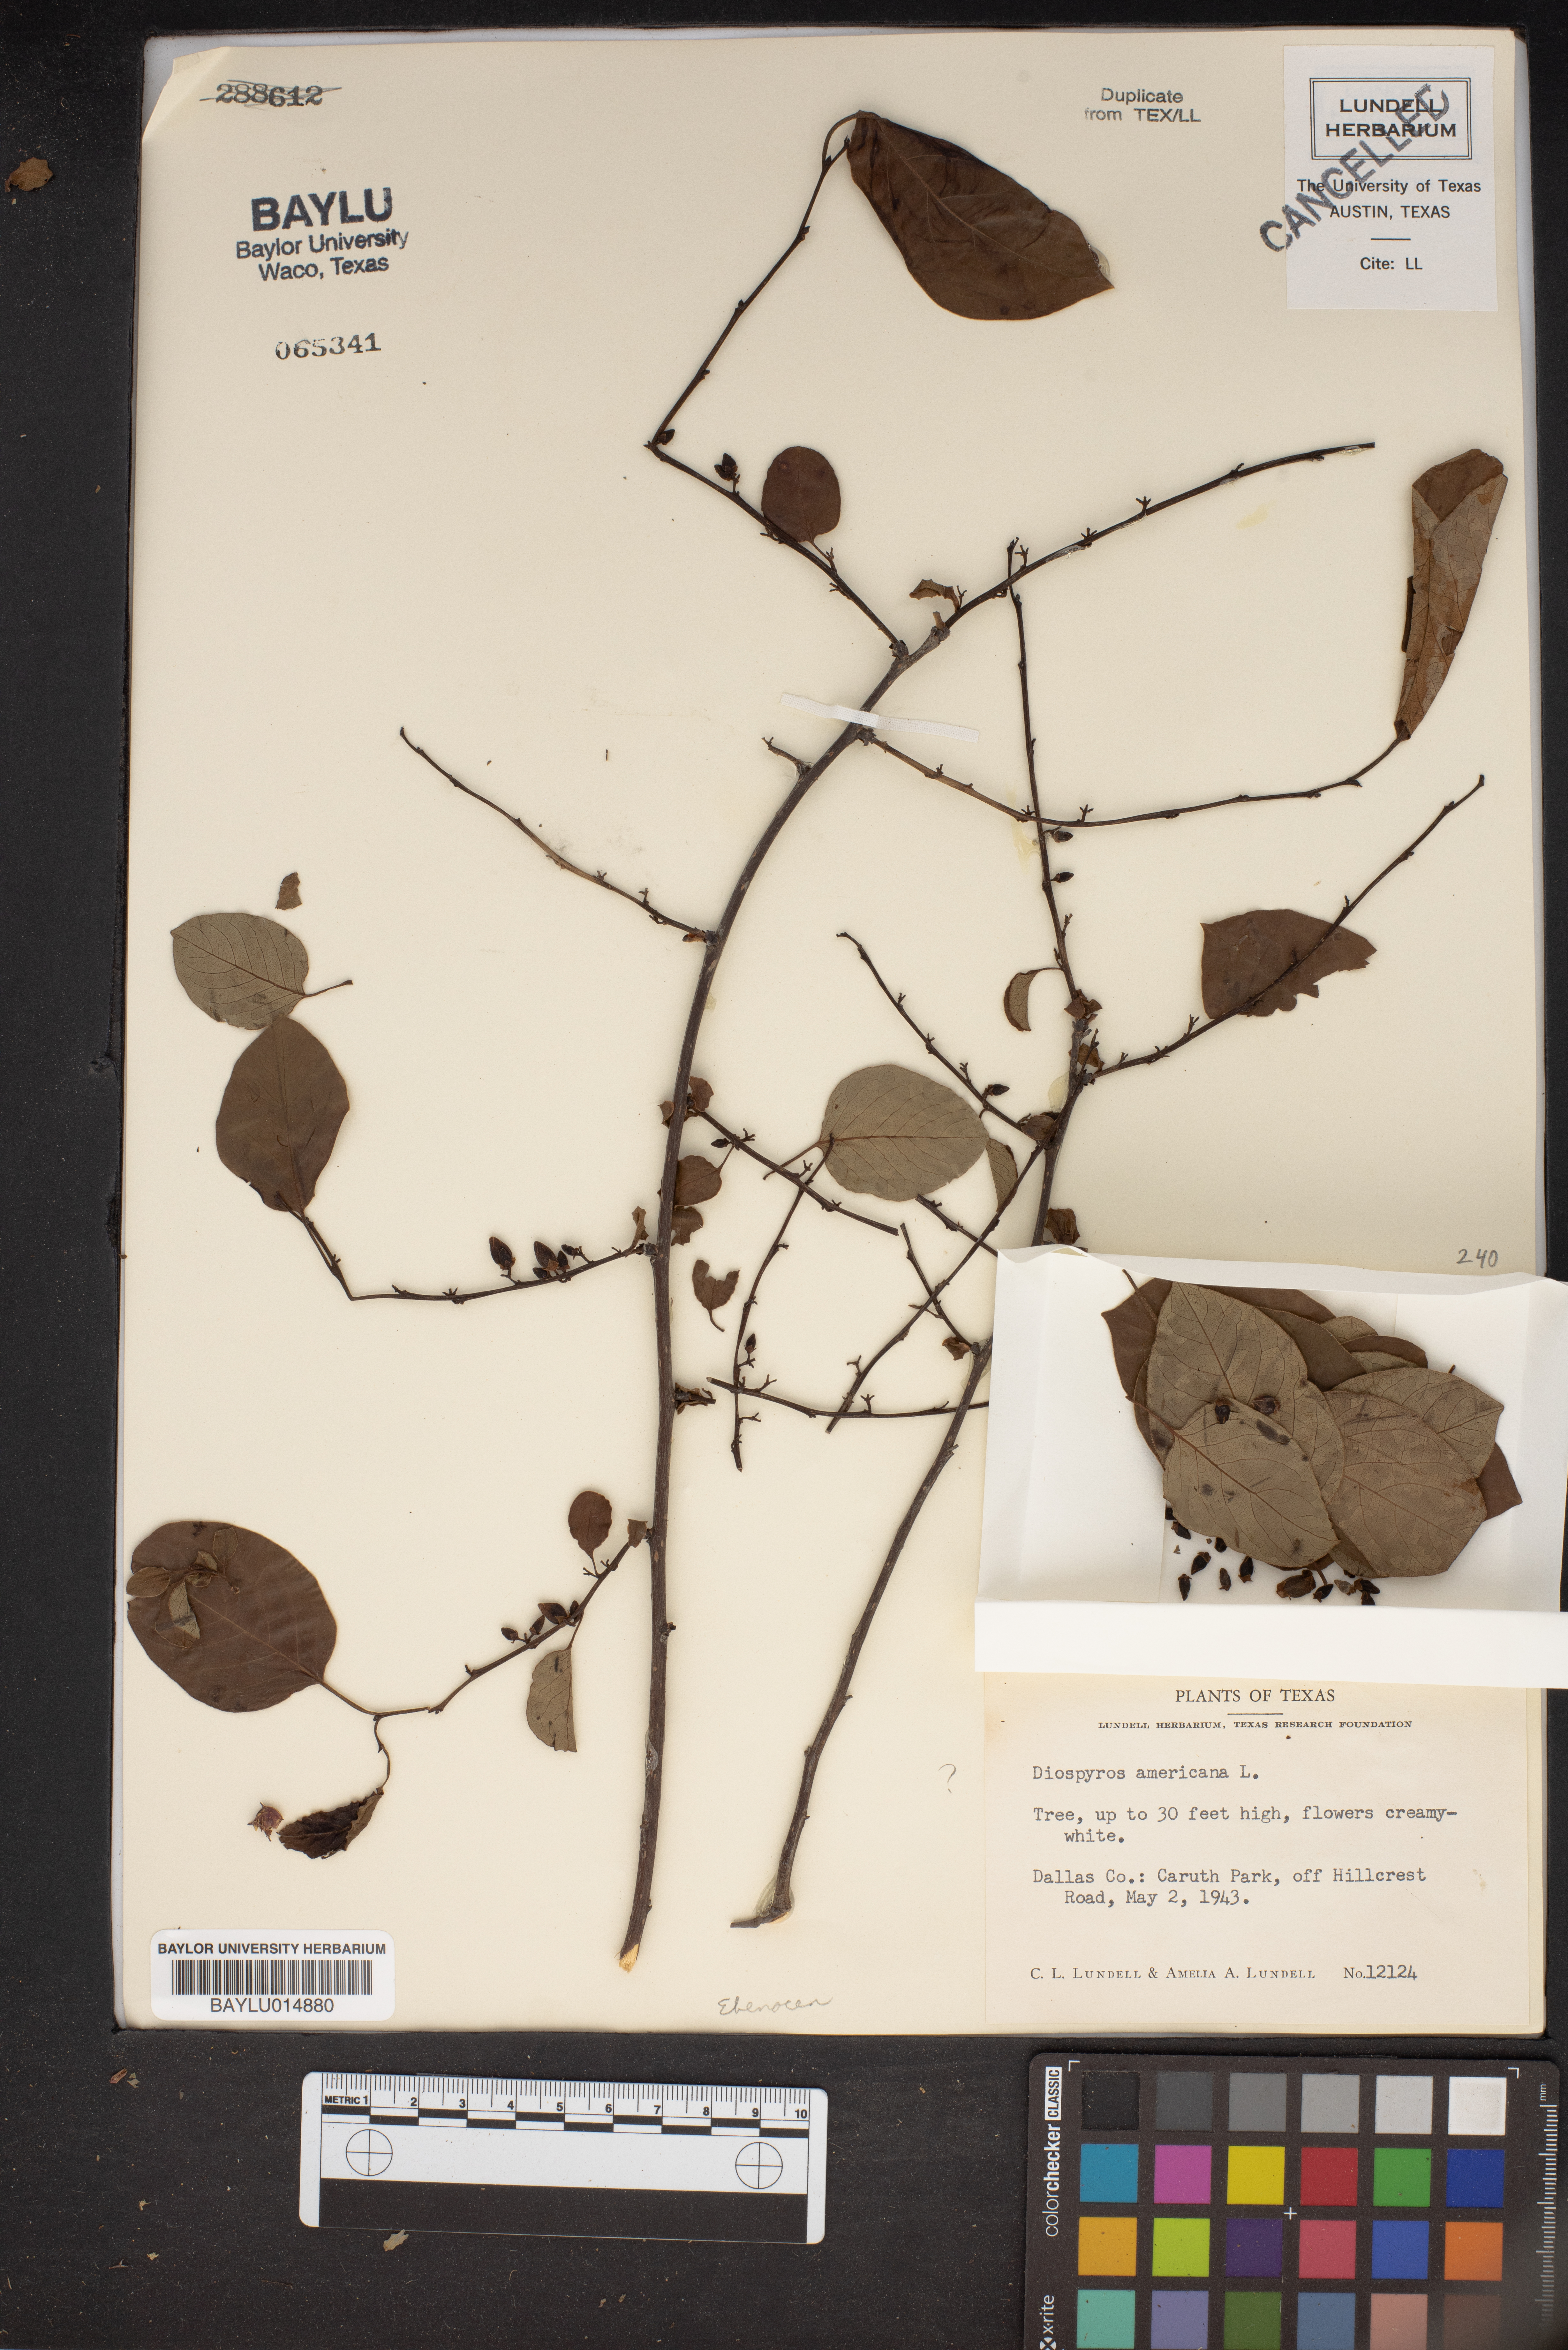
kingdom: Plantae
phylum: Tracheophyta
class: Magnoliopsida
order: Ericales
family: Ebenaceae
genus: Diospyros
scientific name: Diospyros
